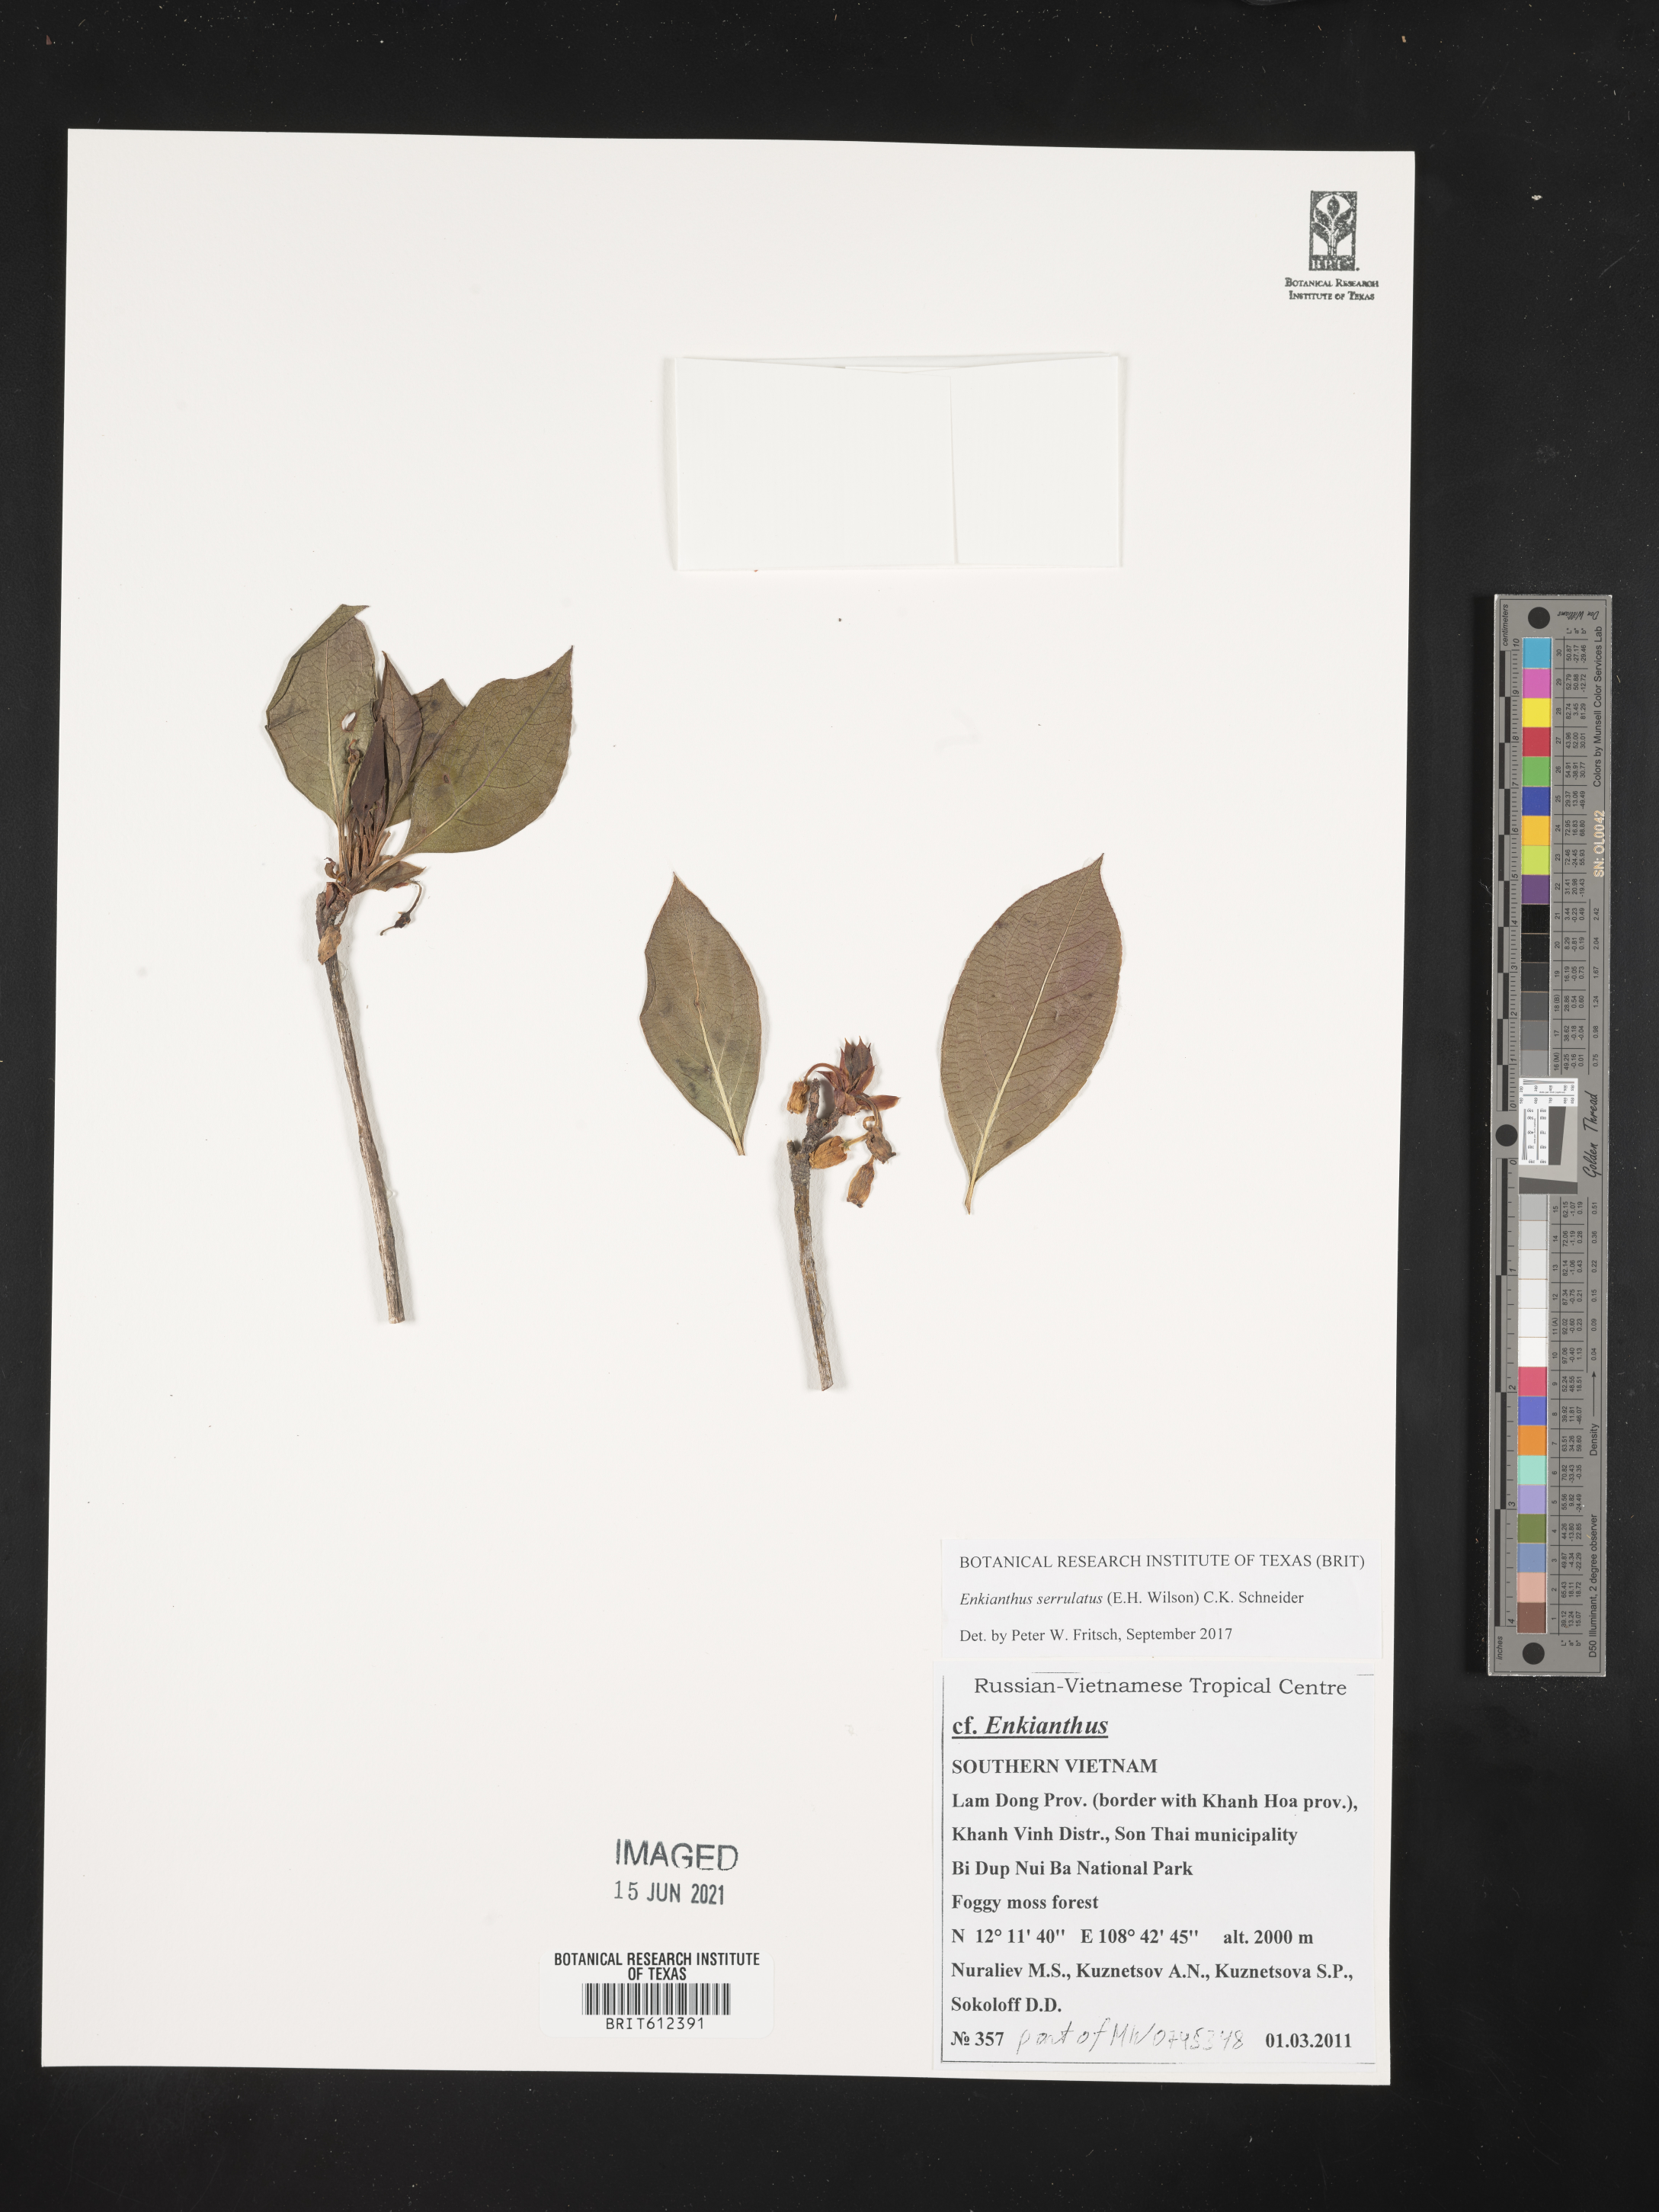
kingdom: Plantae
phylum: Tracheophyta
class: Magnoliopsida
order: Ericales
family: Ericaceae
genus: Enkianthus
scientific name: Enkianthus serrulatus
